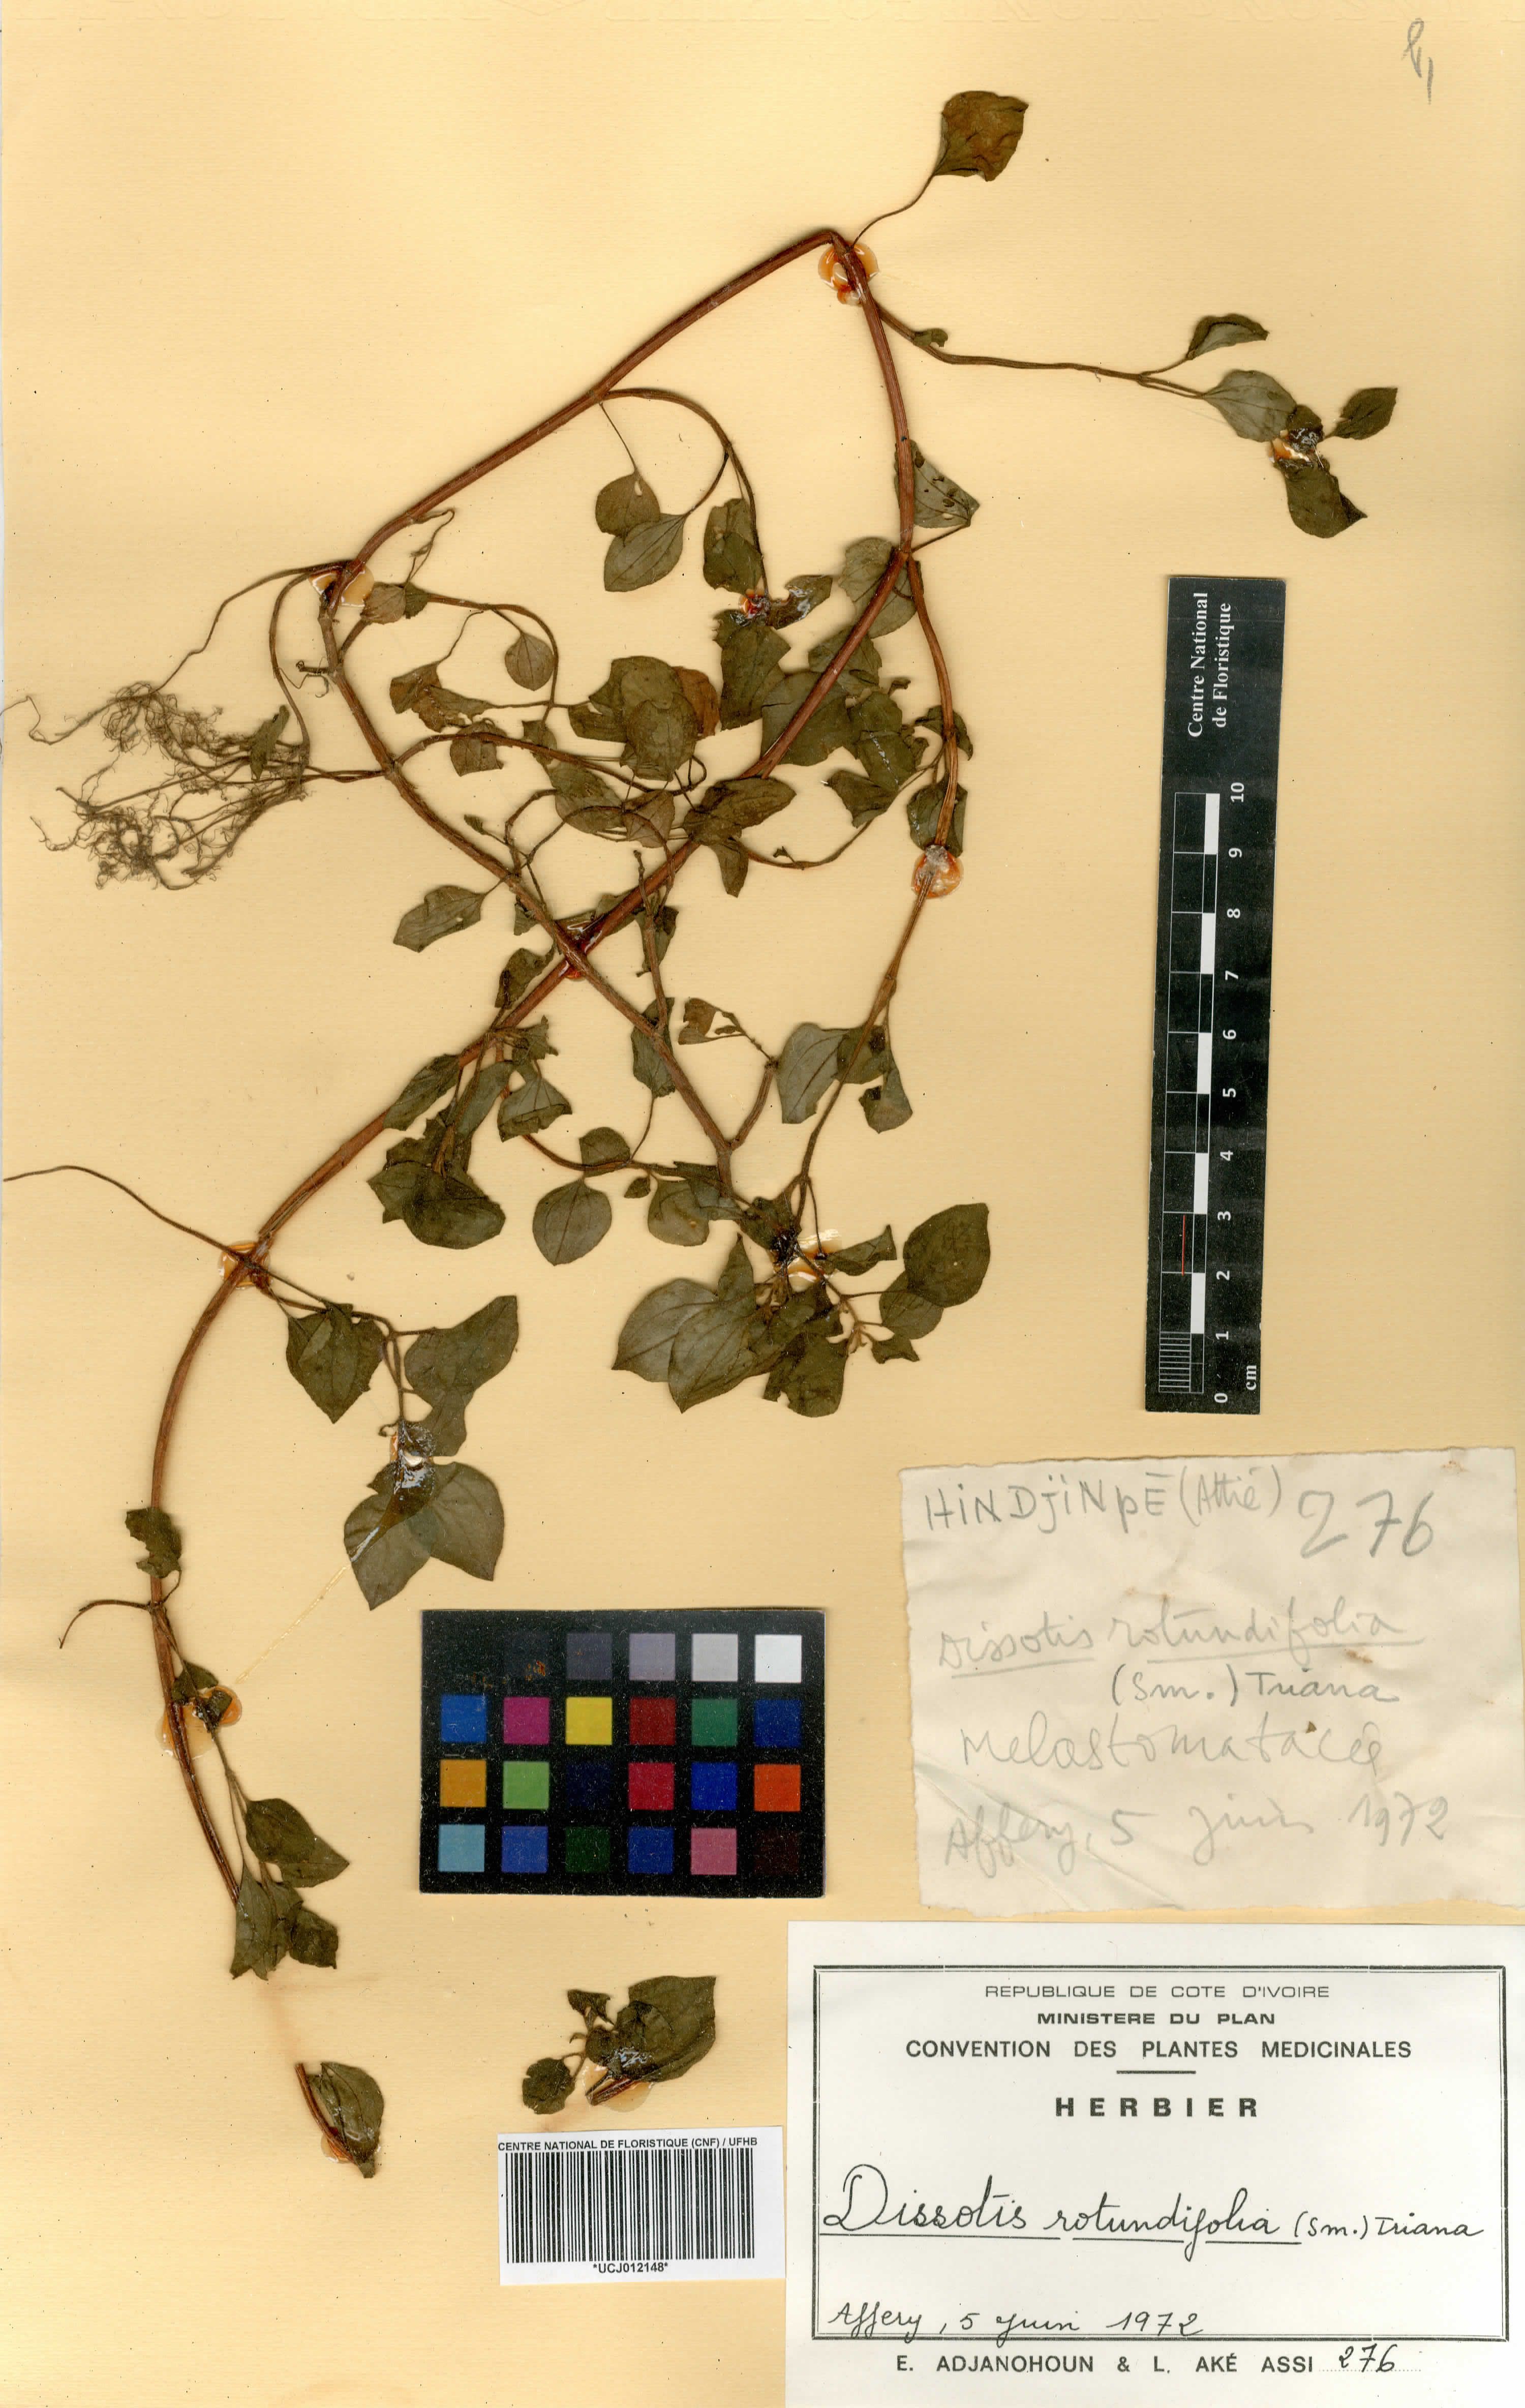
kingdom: Plantae
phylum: Tracheophyta
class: Magnoliopsida
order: Myrtales
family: Melastomataceae
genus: Heterotis
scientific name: Heterotis rotundifolia
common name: Pinklady
